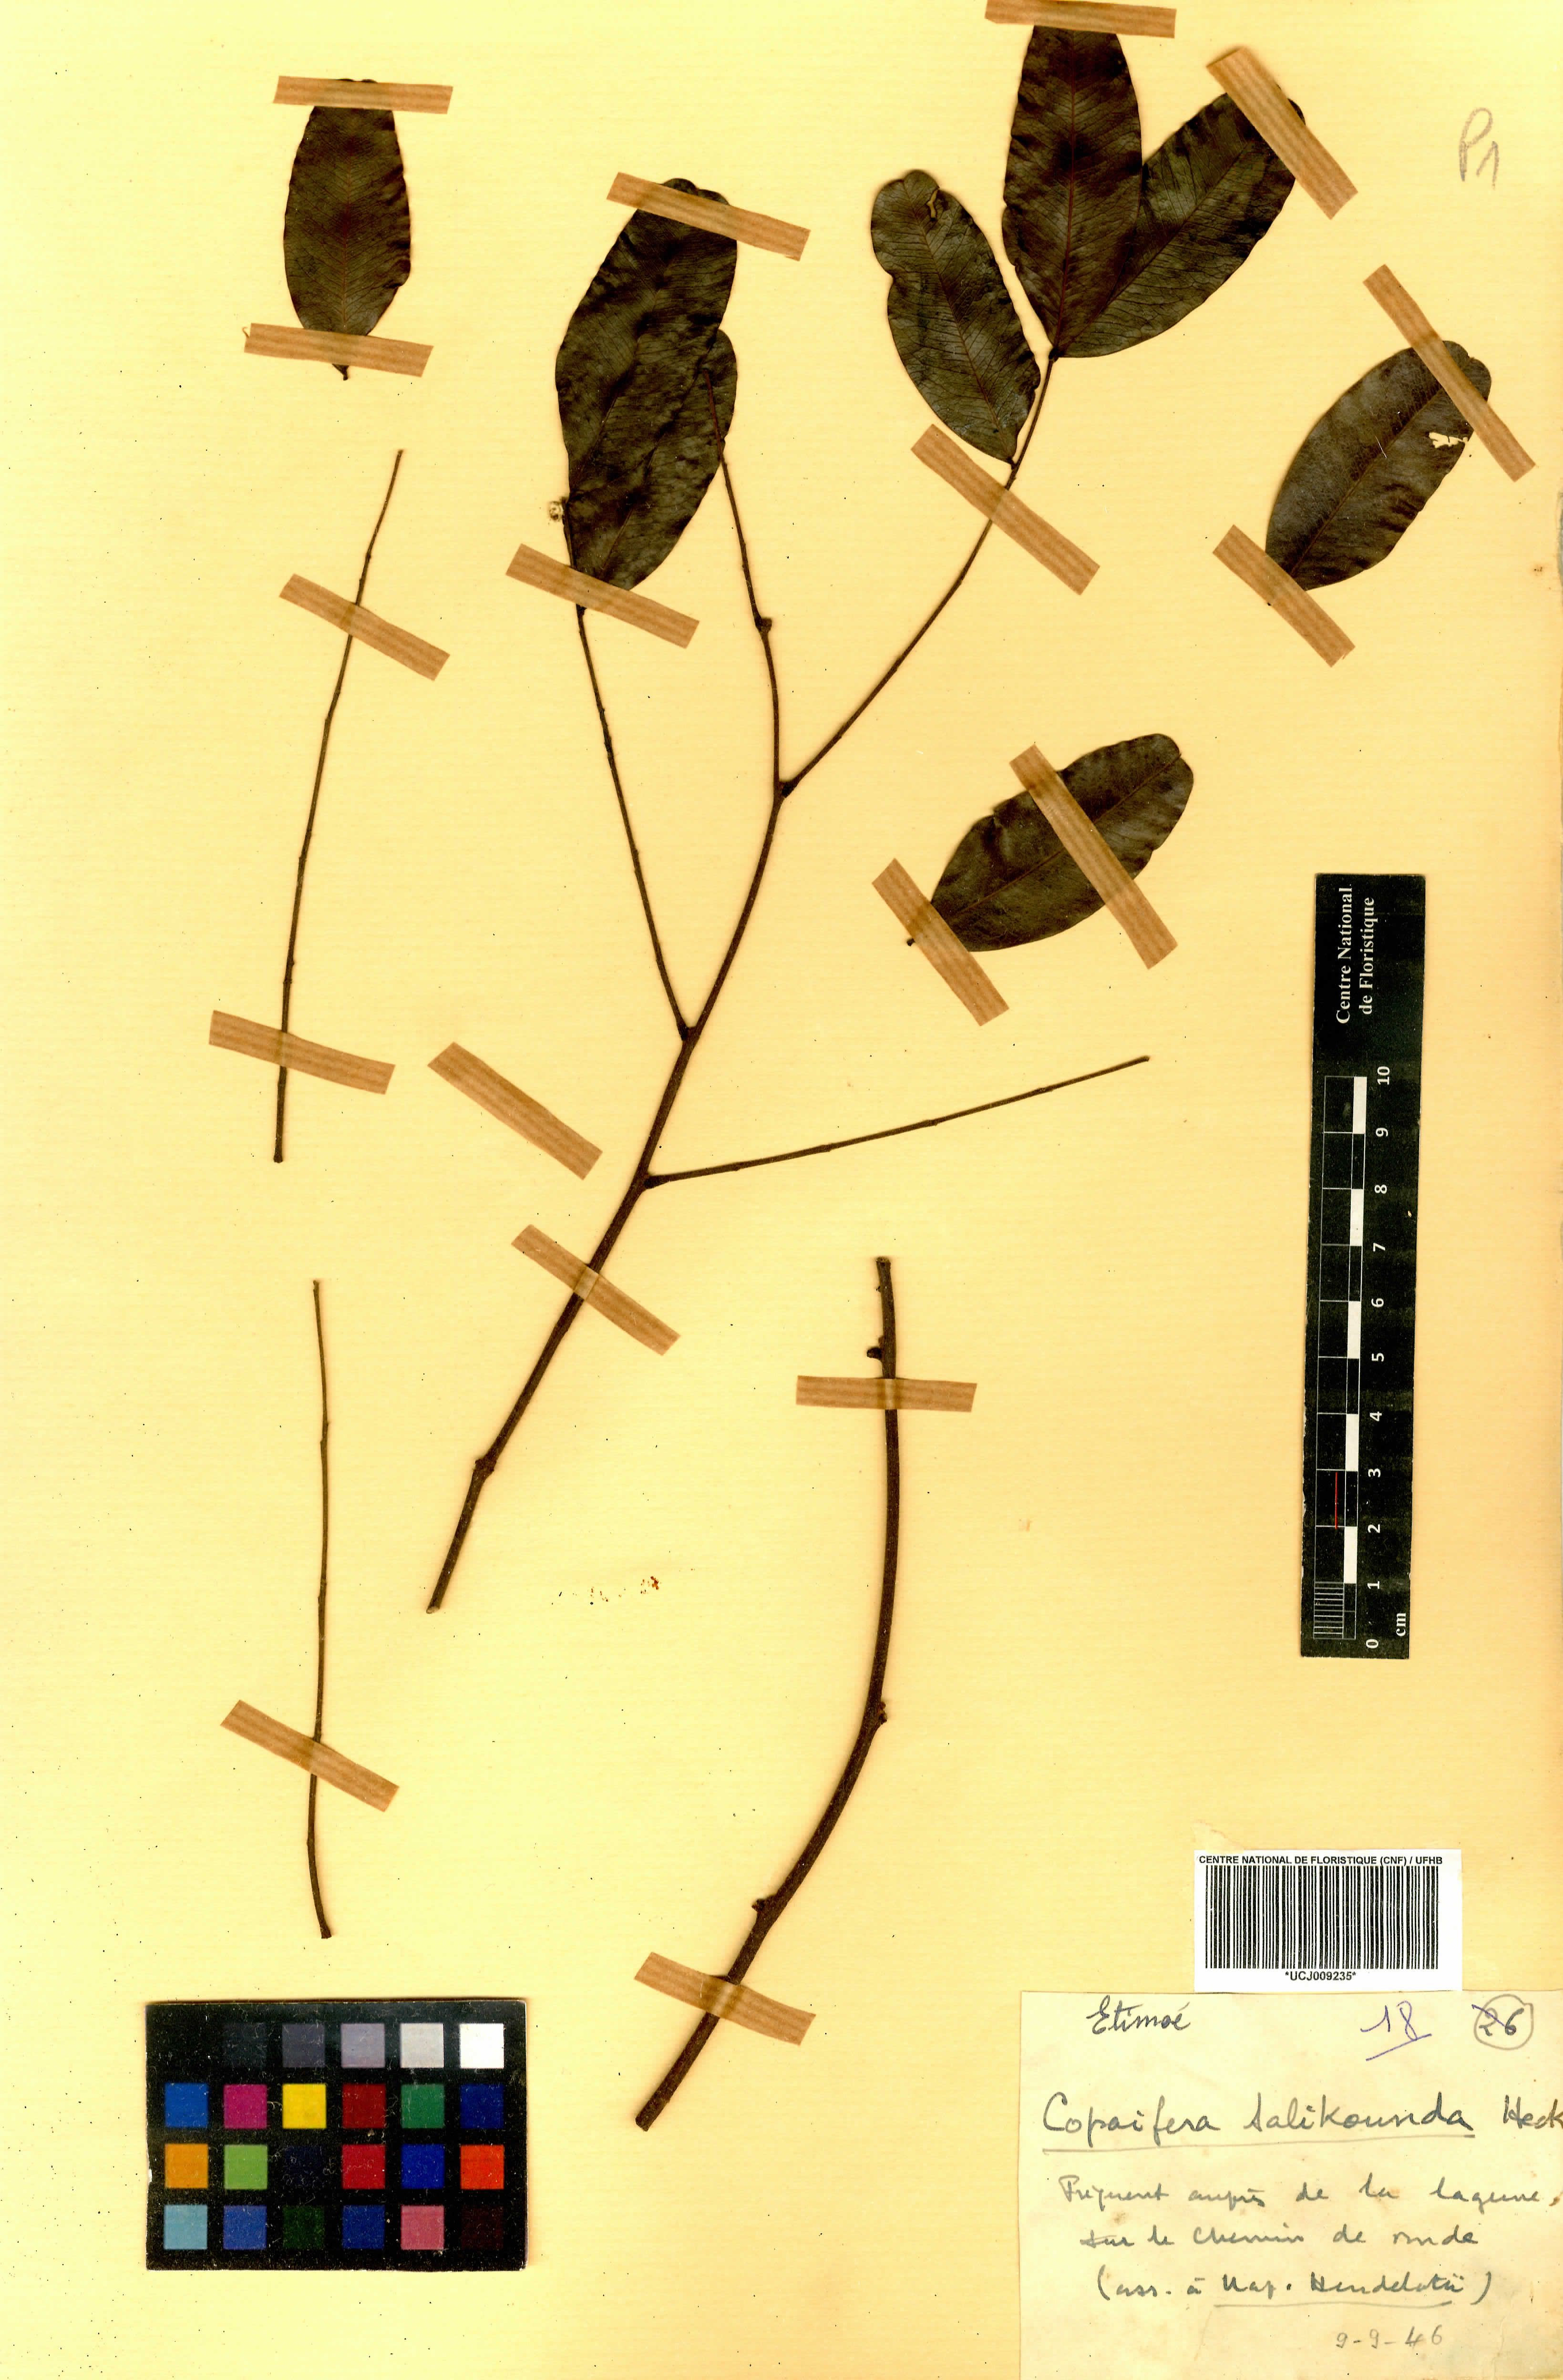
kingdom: Plantae
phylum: Tracheophyta
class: Magnoliopsida
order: Fabales
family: Fabaceae
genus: Copaifera
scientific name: Copaifera salikounda
